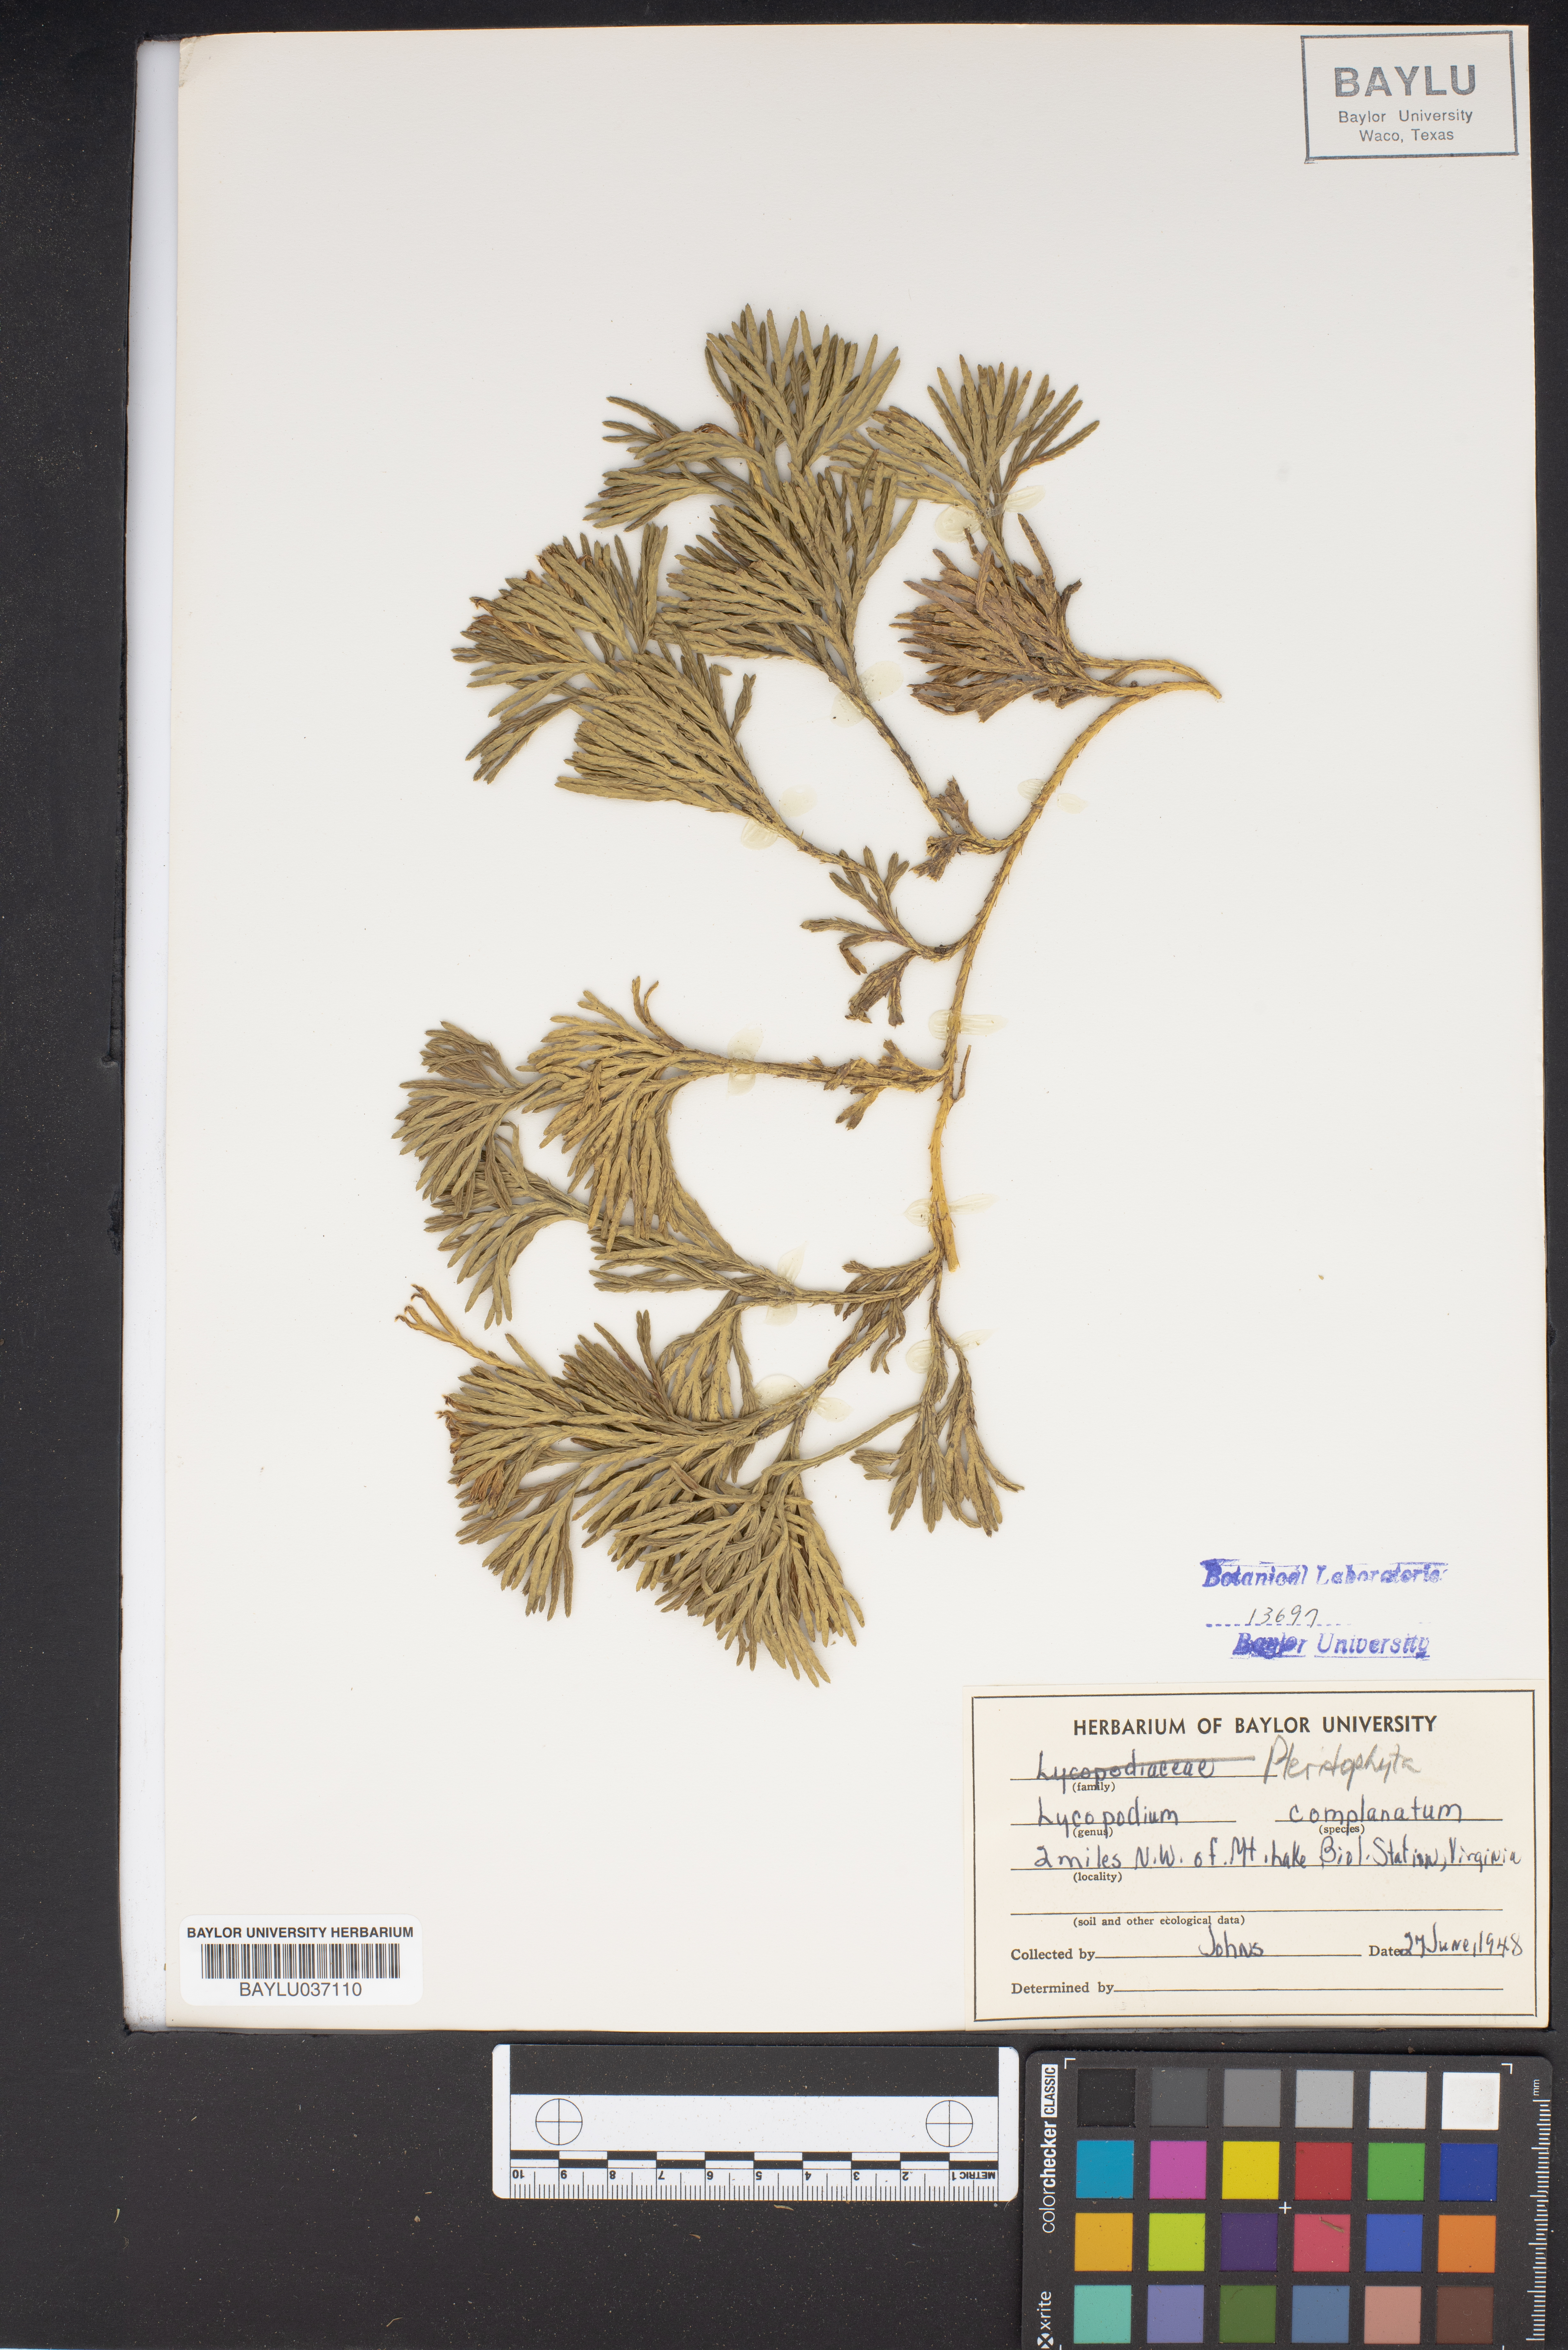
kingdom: Plantae
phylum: Tracheophyta
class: Lycopodiopsida
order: Lycopodiales
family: Lycopodiaceae
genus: Diphasiastrum
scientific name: Diphasiastrum complanatum
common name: Northern running-pine
